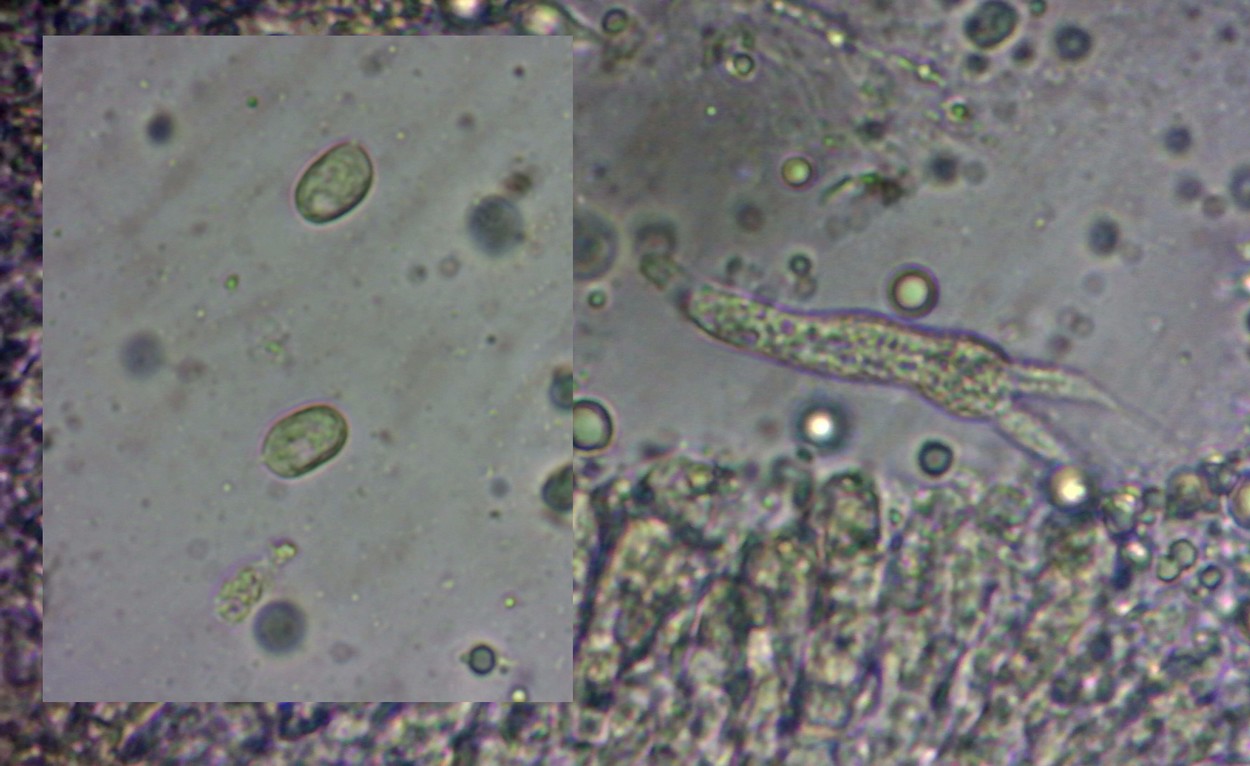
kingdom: Fungi
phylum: Basidiomycota
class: Agaricomycetes
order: Agaricales
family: Mycenaceae
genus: Mycena
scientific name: Mycena
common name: huesvamp
